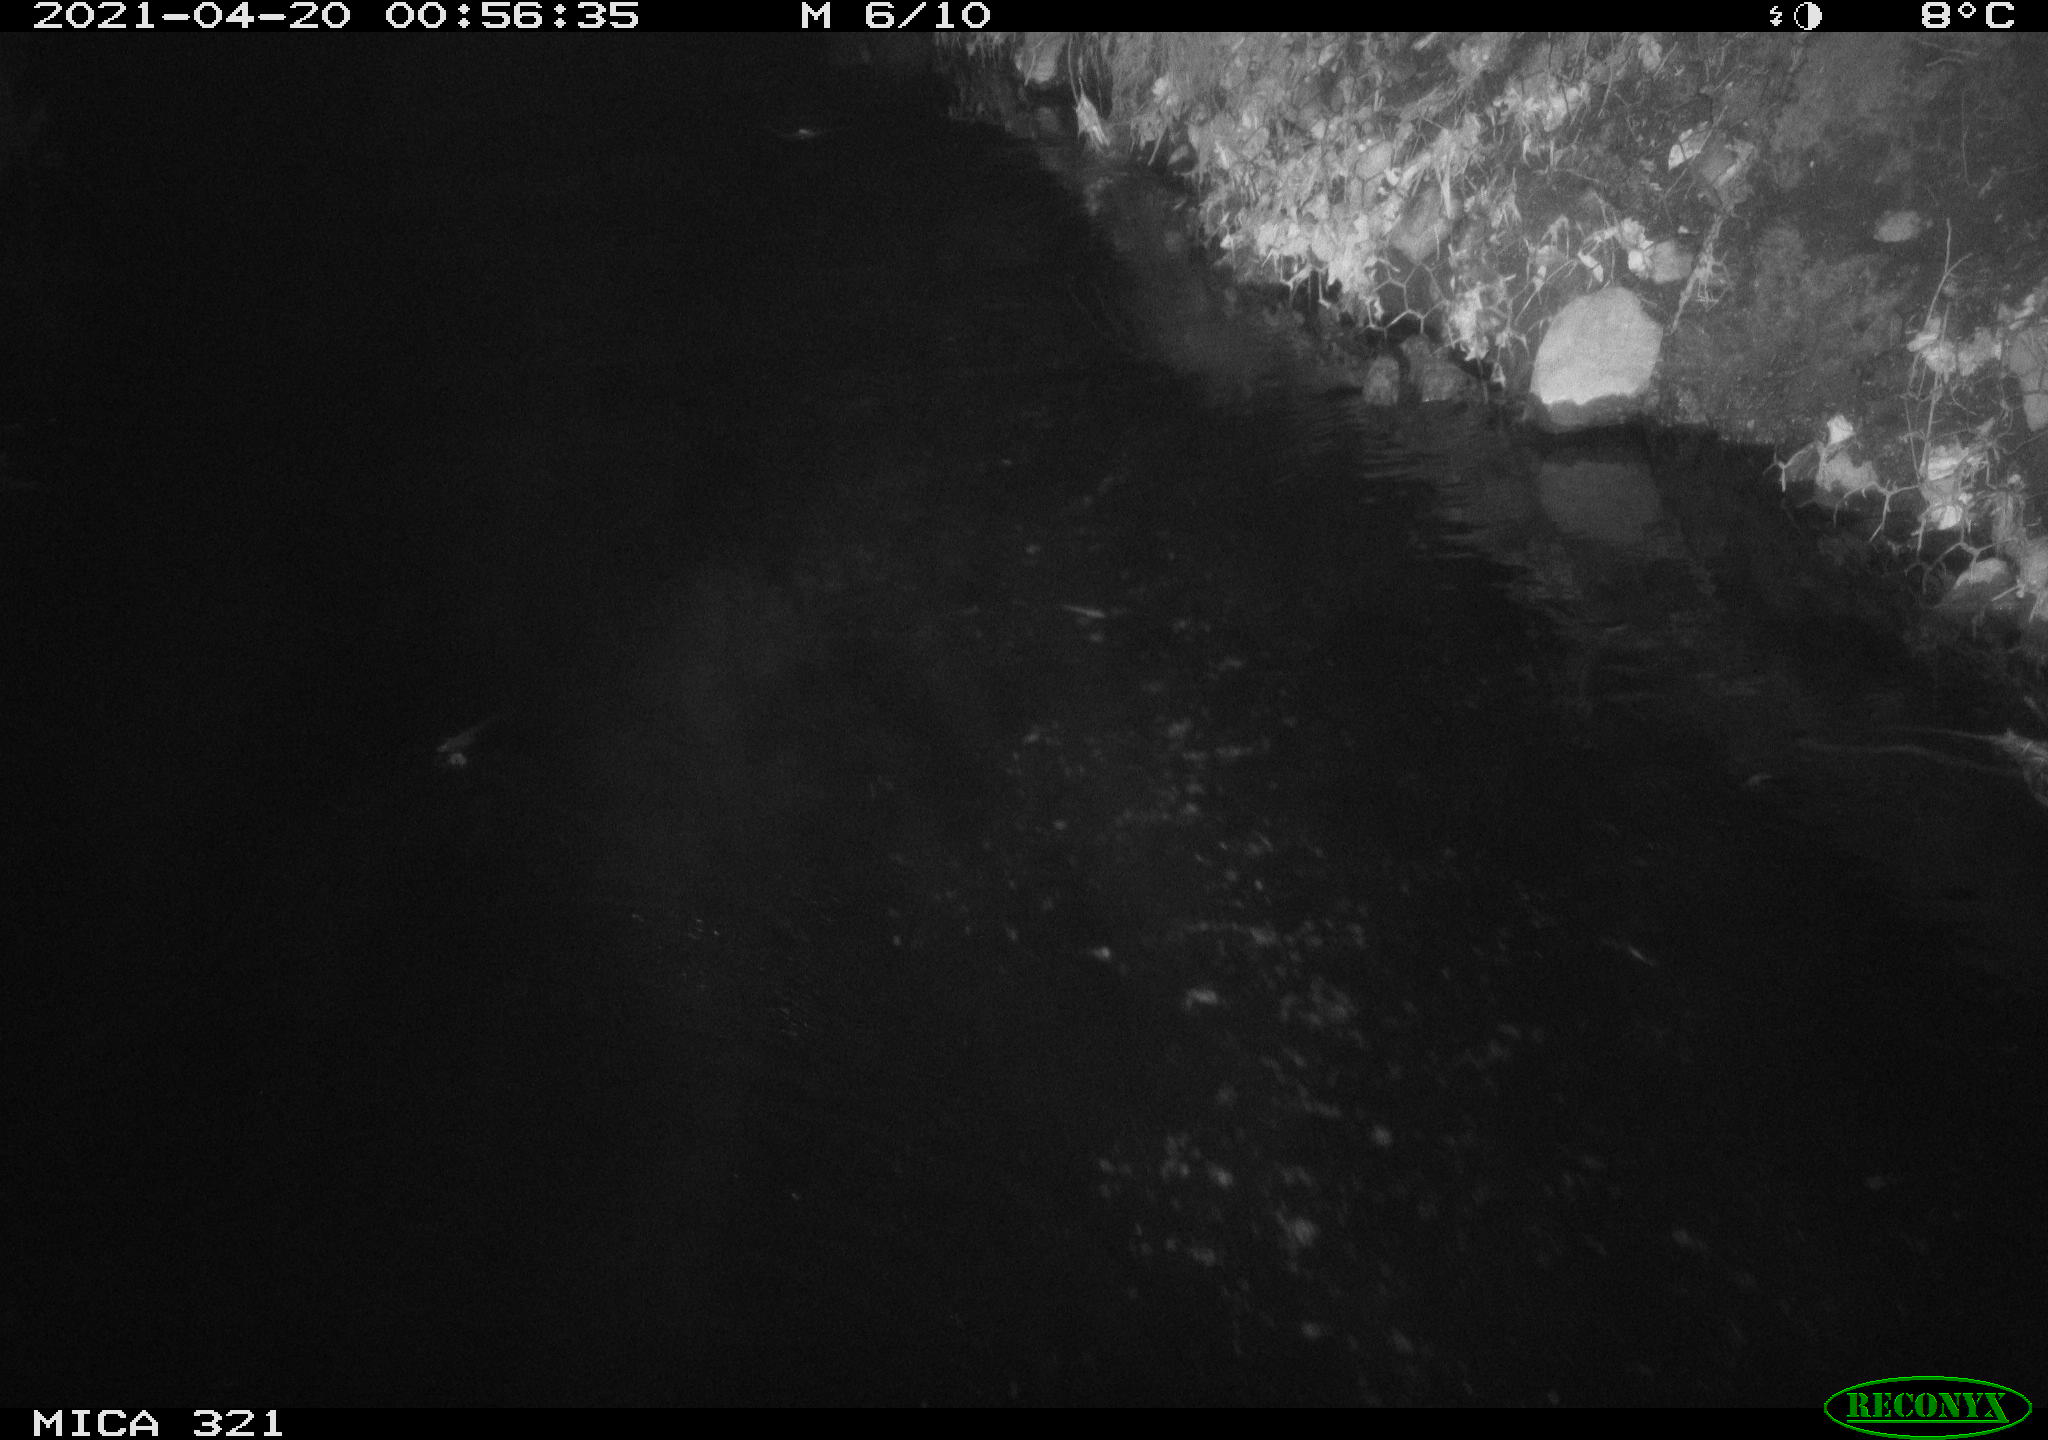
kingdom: Animalia
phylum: Chordata
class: Aves
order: Pelecaniformes
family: Ardeidae
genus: Ardea
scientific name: Ardea
